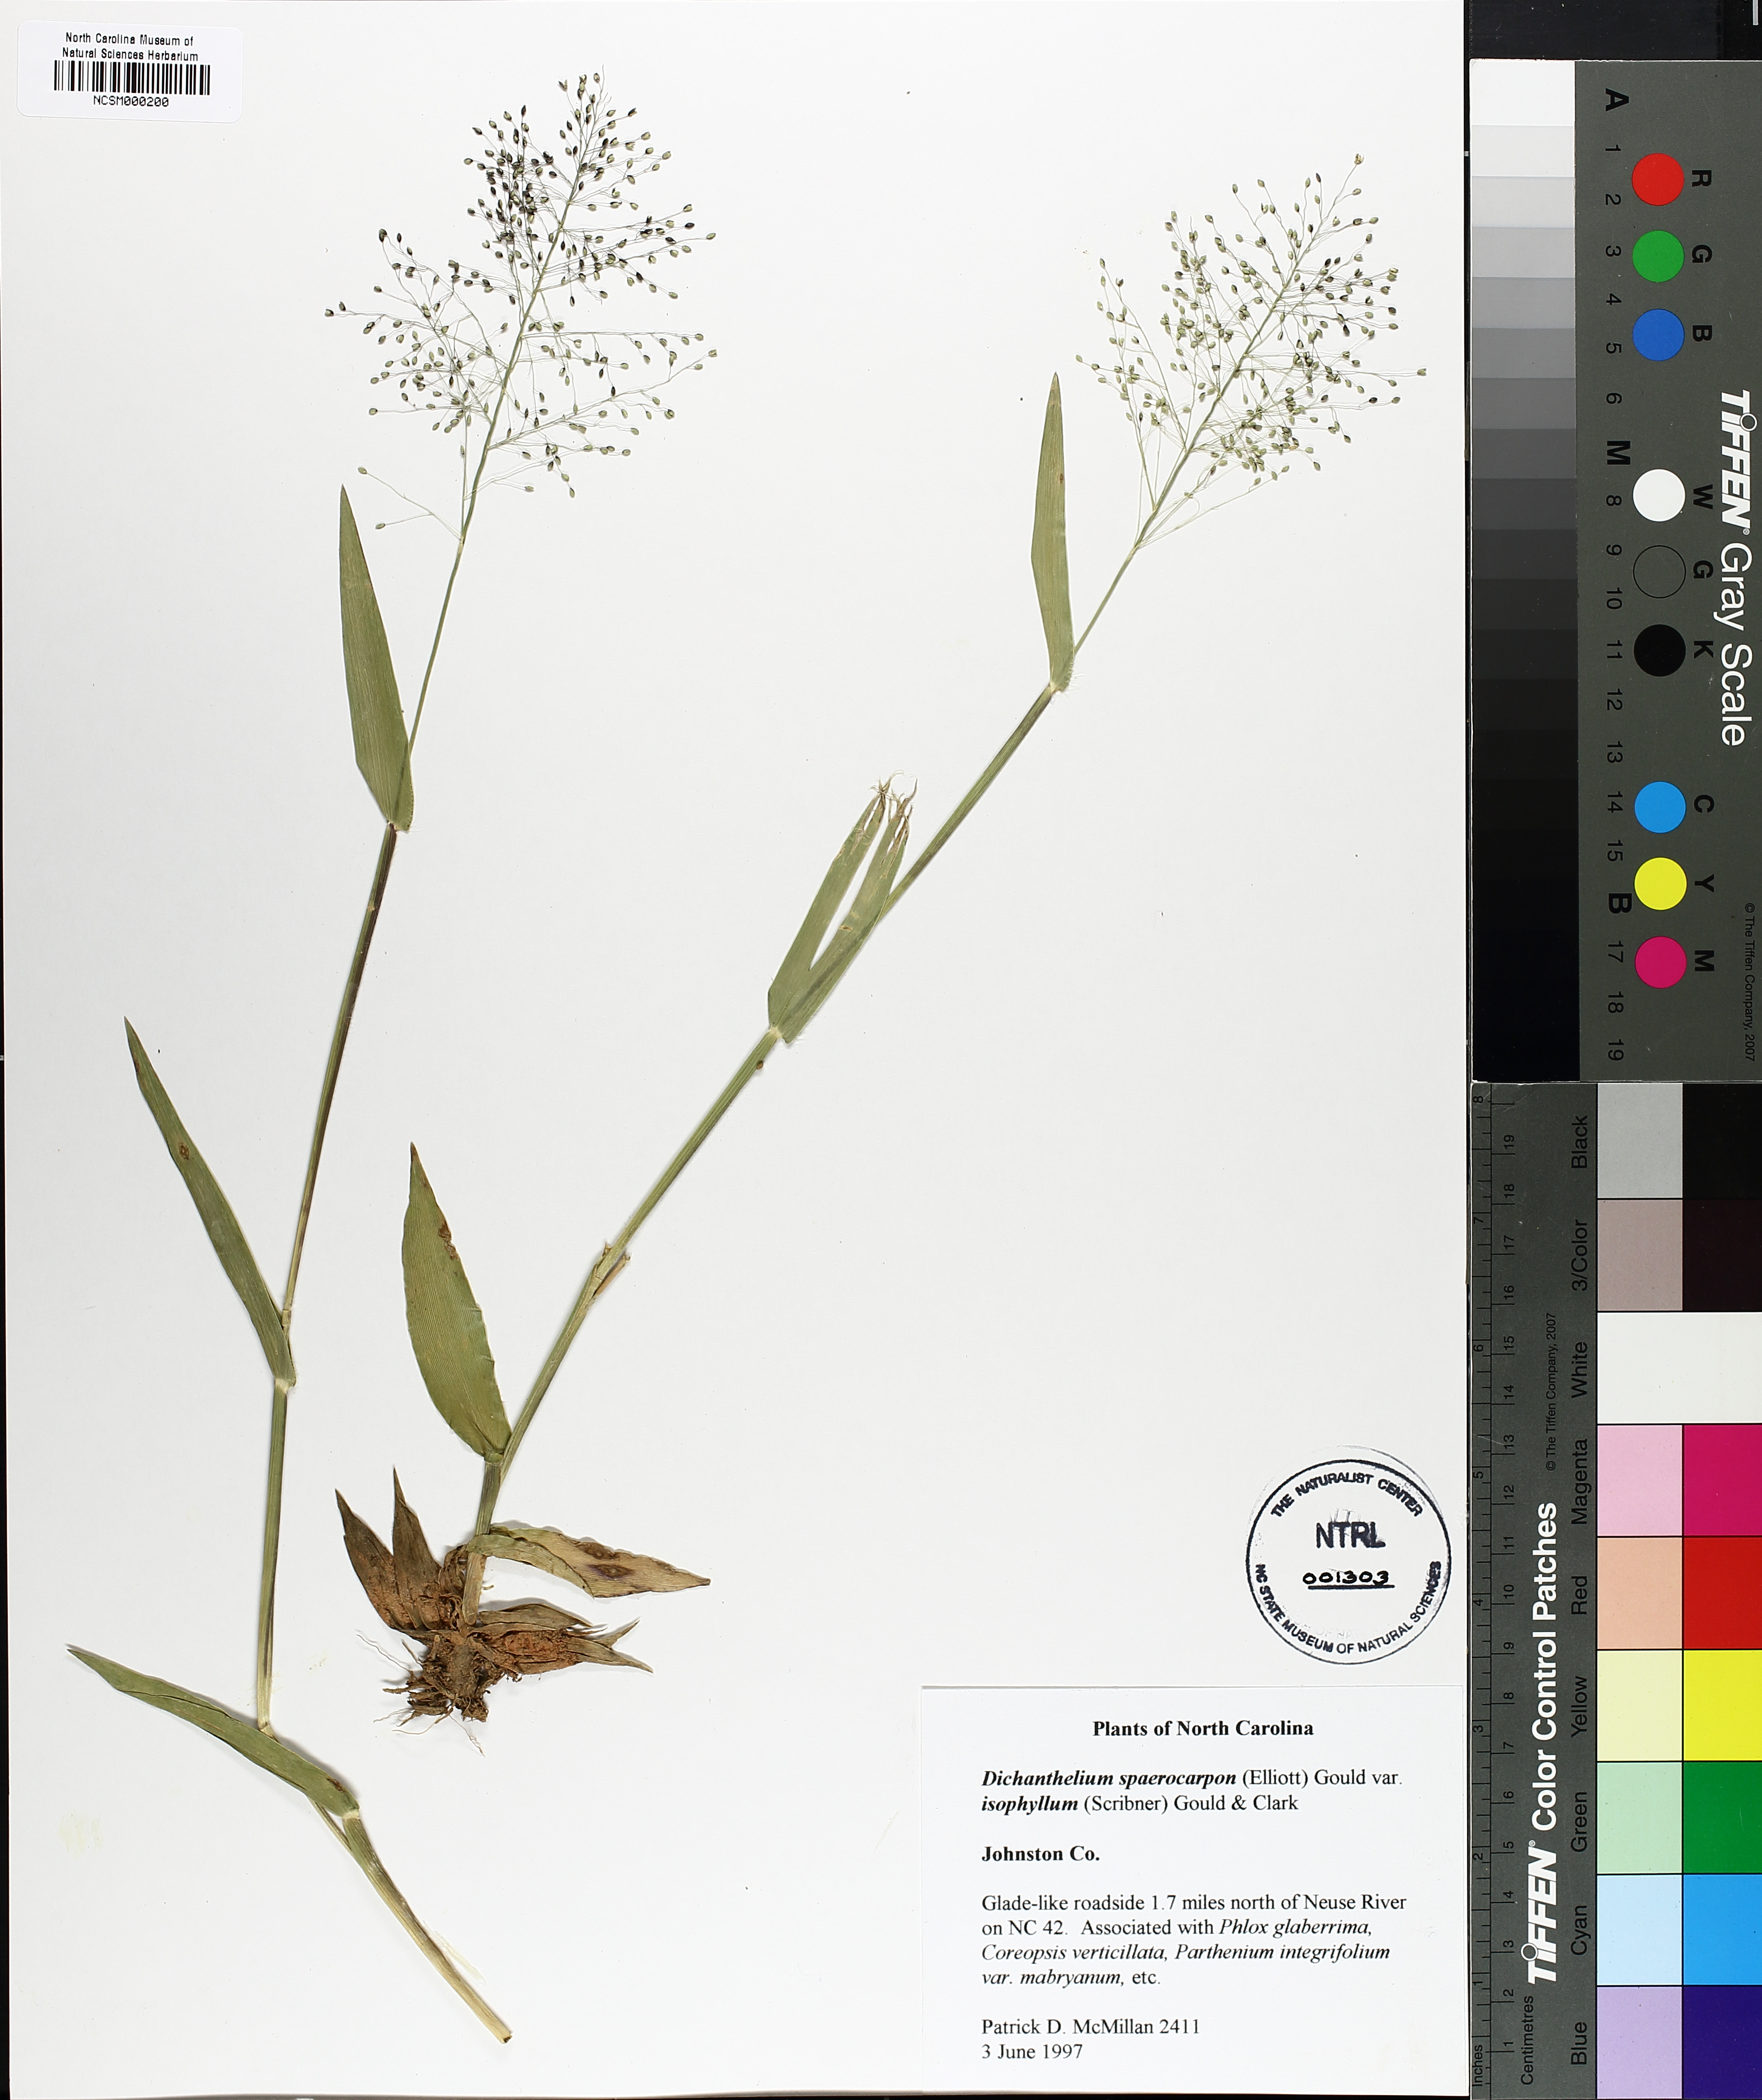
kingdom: Plantae
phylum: Tracheophyta
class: Liliopsida
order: Poales
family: Poaceae
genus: Dichanthelium
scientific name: Dichanthelium polyanthes
